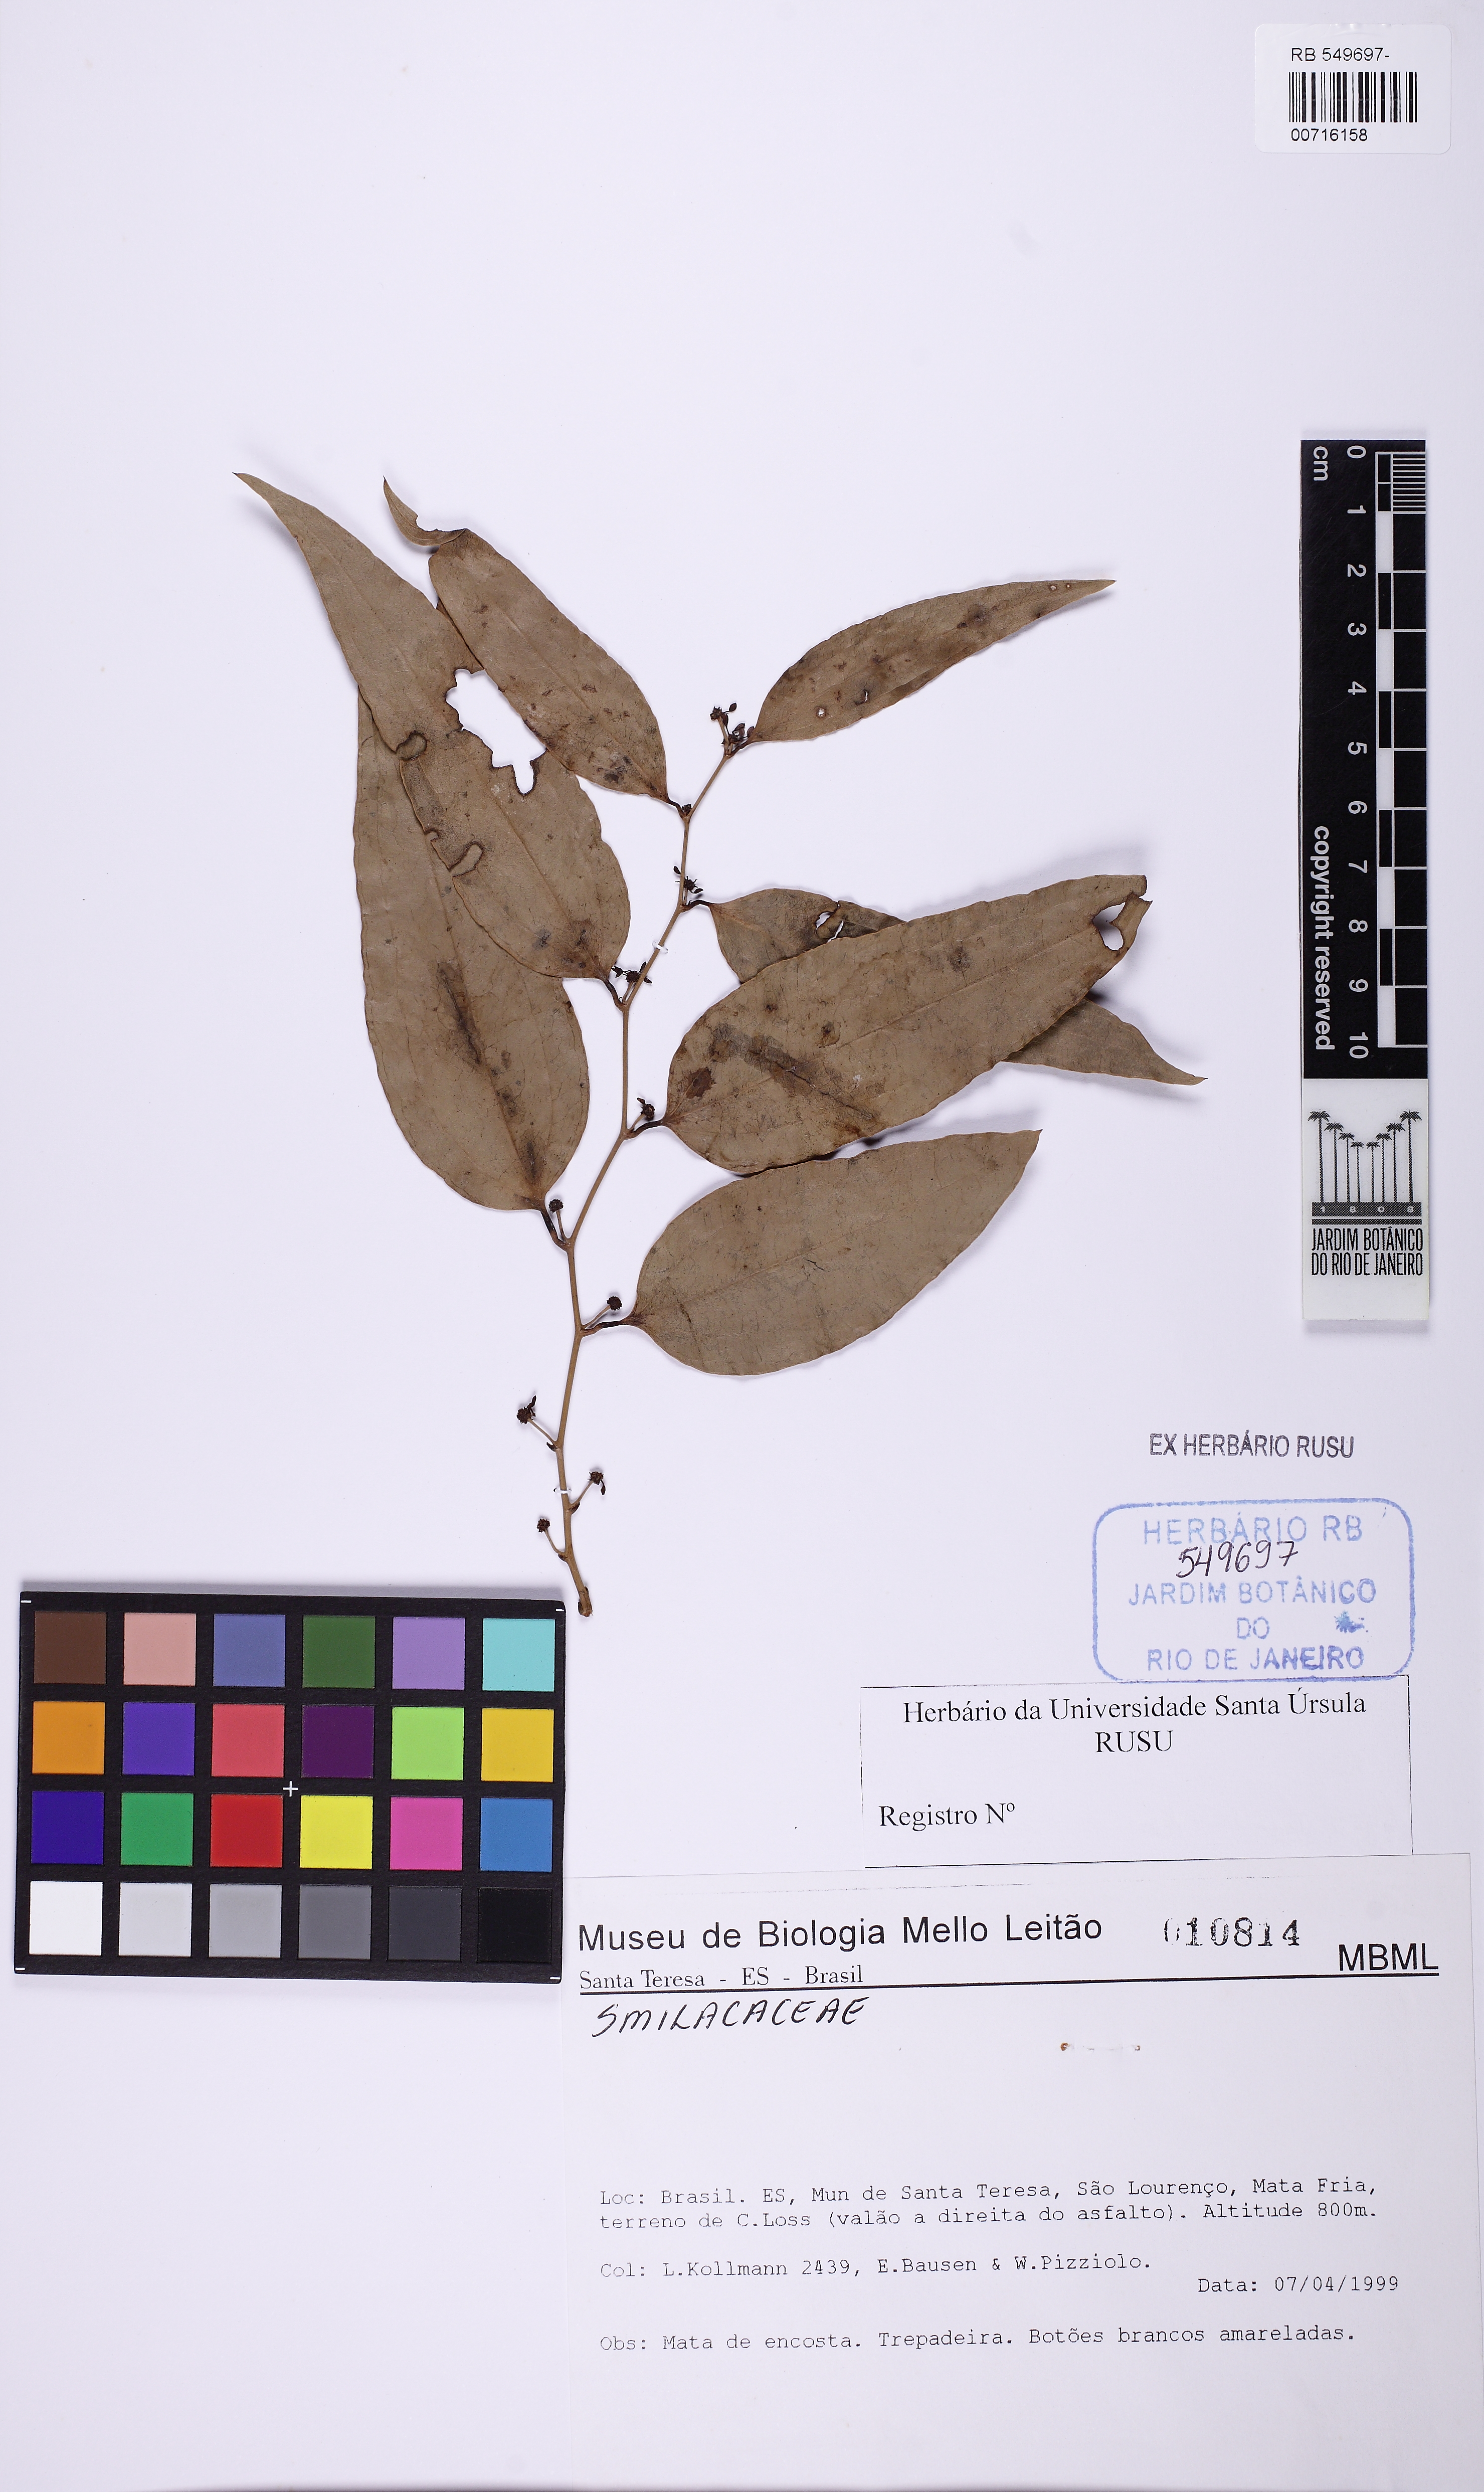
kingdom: Plantae
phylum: Tracheophyta
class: Liliopsida
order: Liliales
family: Smilacaceae
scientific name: Smilacaceae
